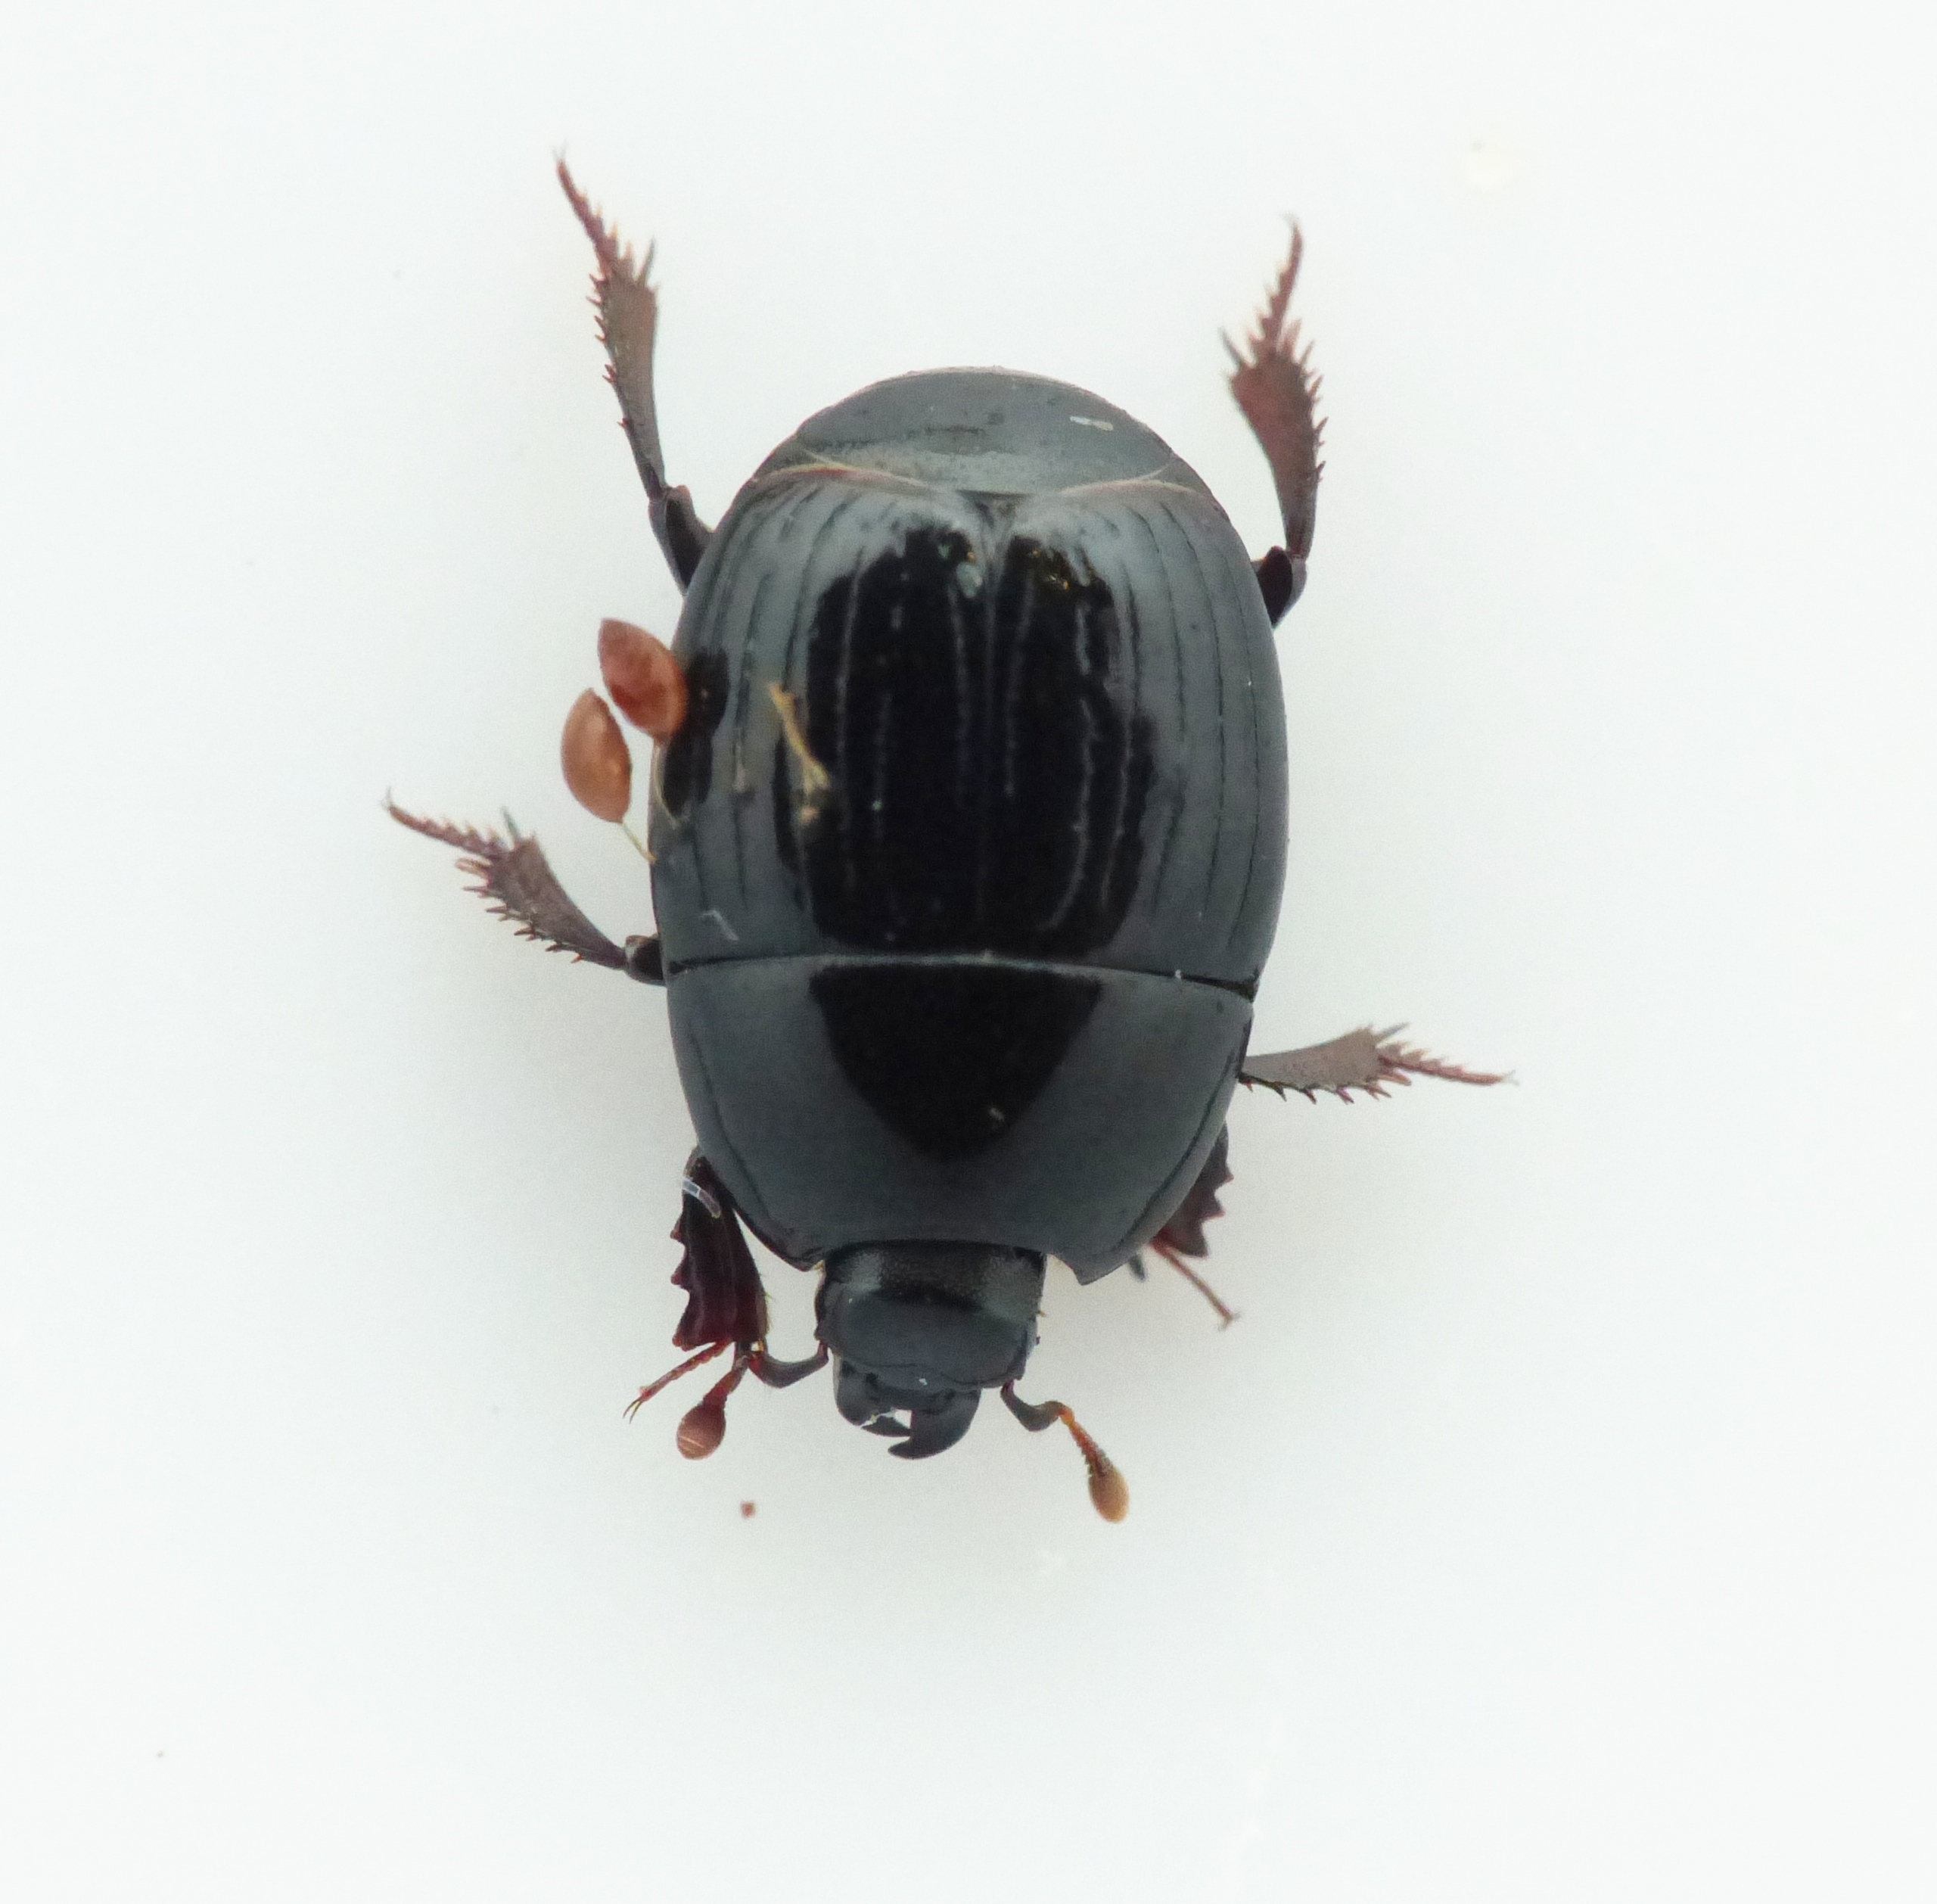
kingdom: Animalia
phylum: Arthropoda
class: Insecta
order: Coleoptera
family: Histeridae
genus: Atholus
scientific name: Atholus duodecimstriatus
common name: Fuldstribet stumpbille
